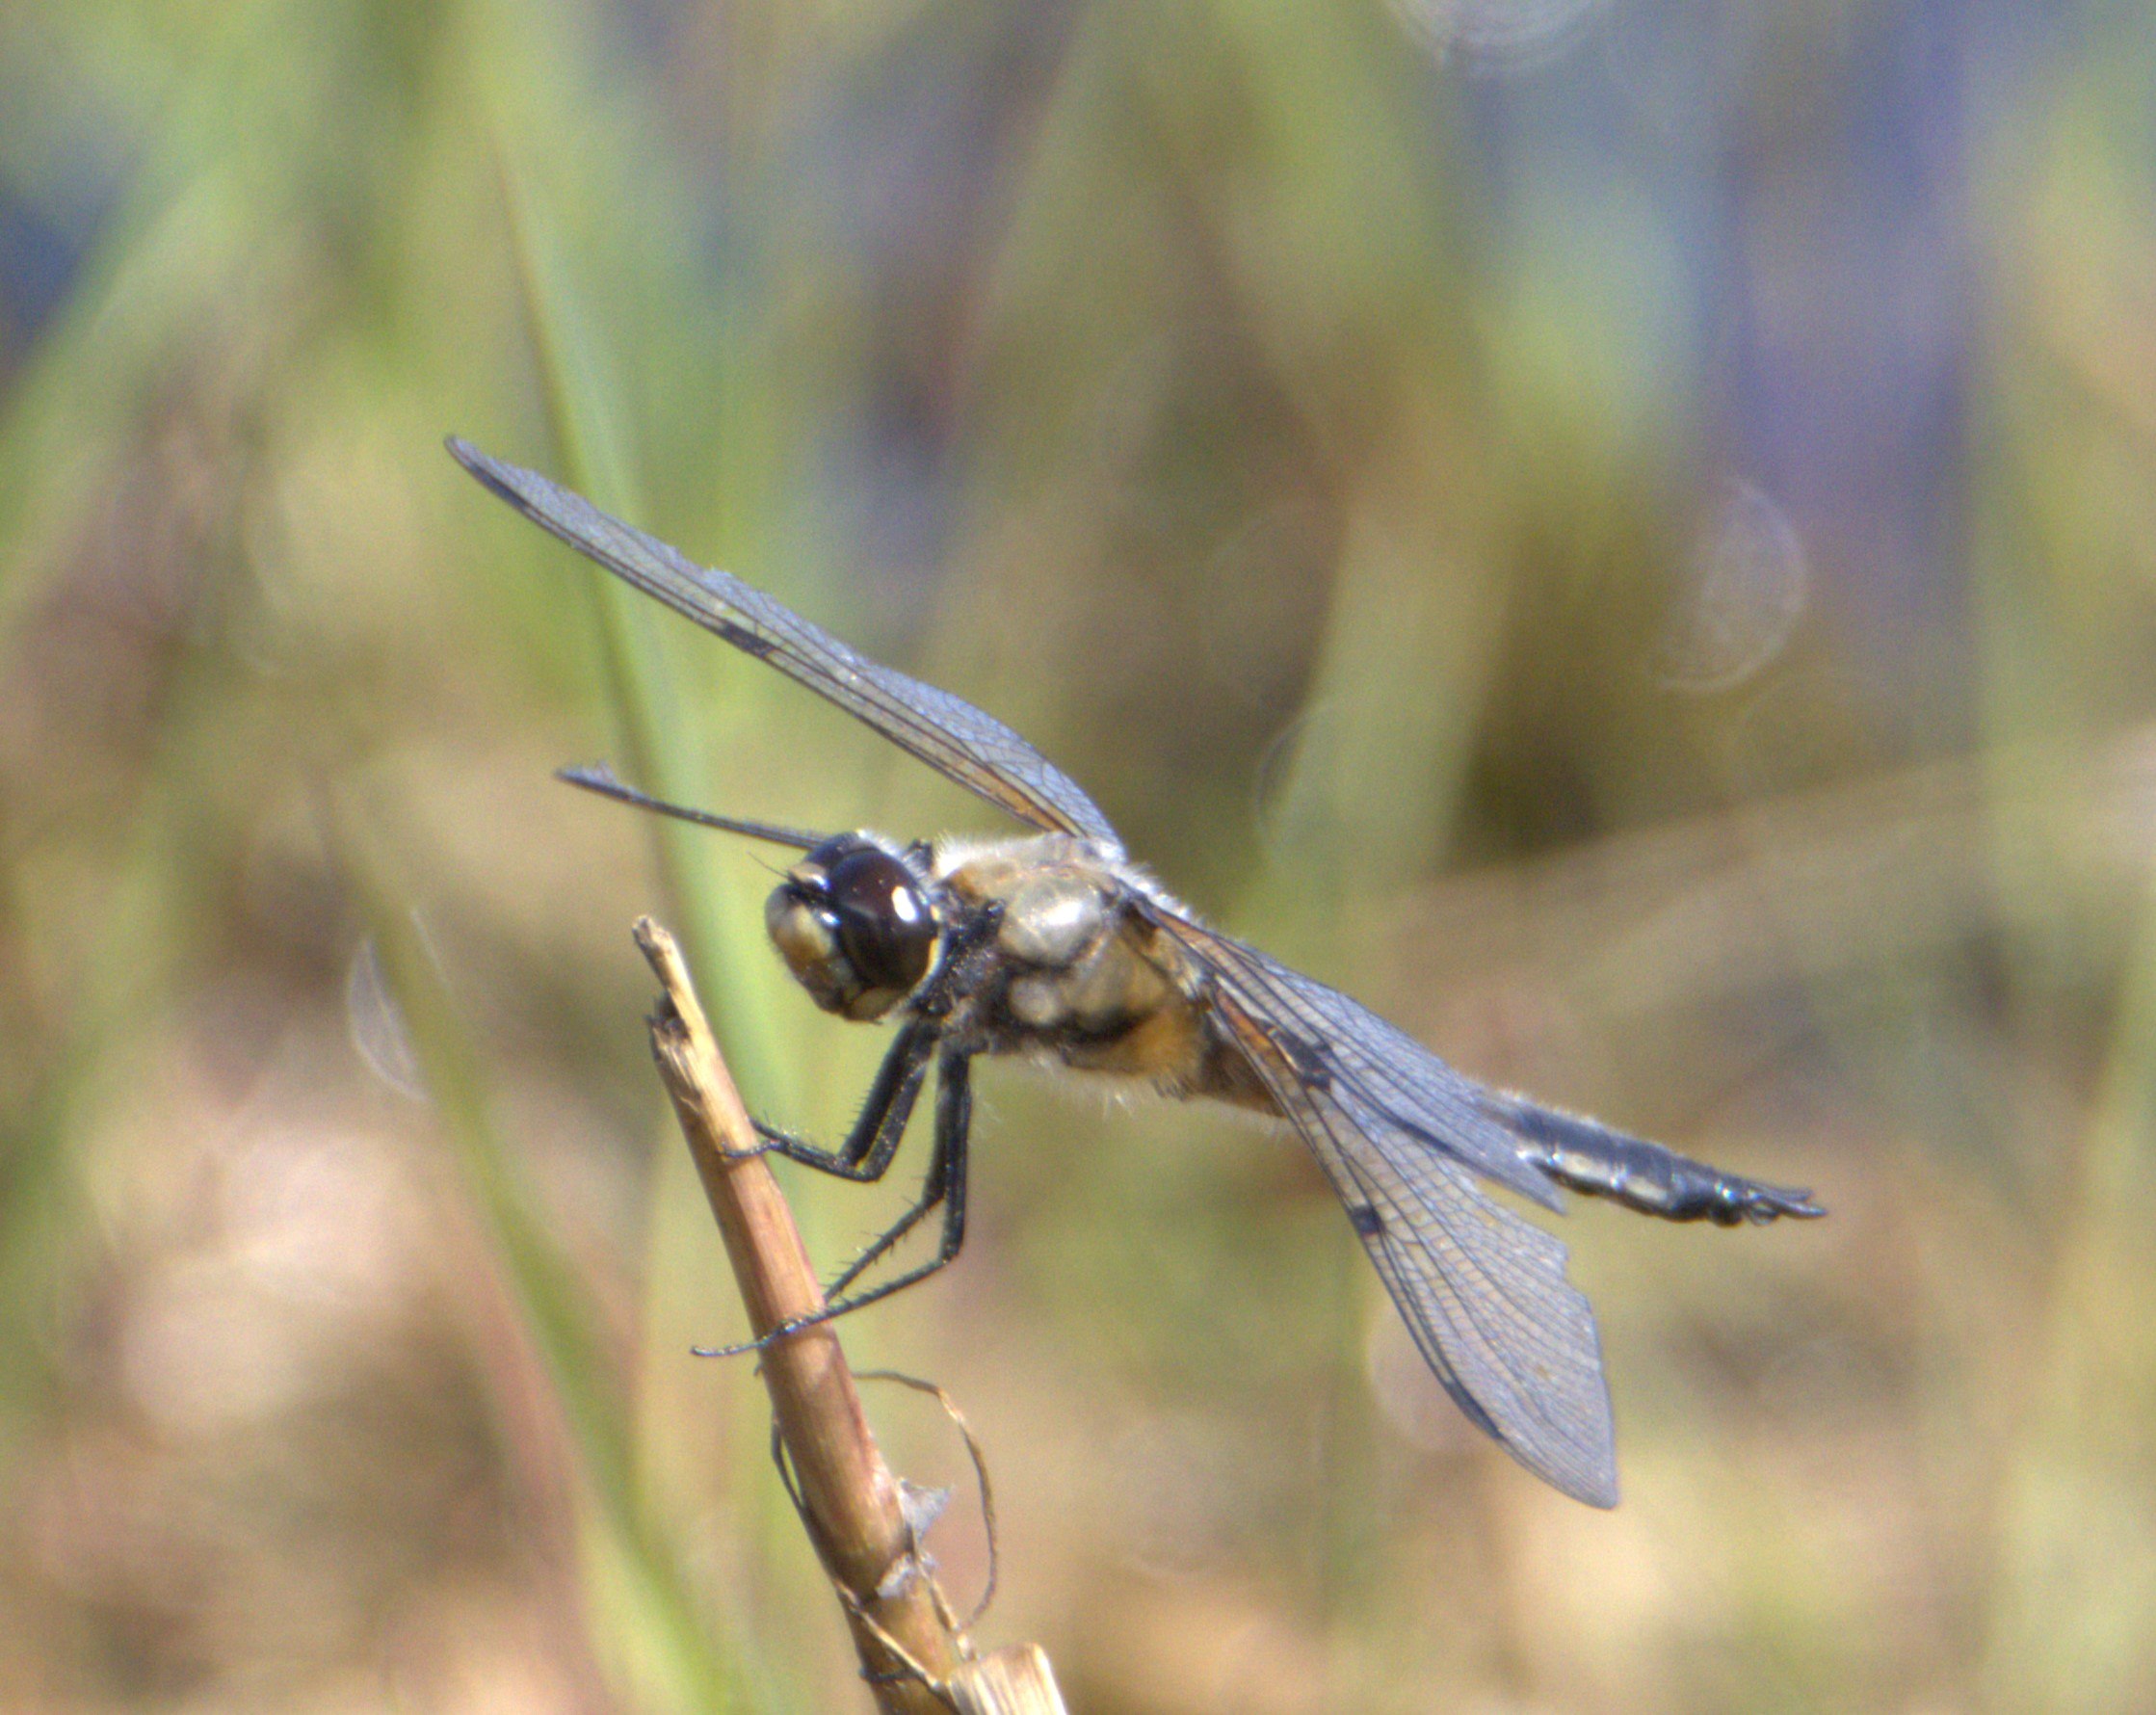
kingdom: Animalia
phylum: Arthropoda
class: Insecta
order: Odonata
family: Libellulidae
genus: Libellula
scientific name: Libellula quadrimaculata
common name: Fireplettet libel
